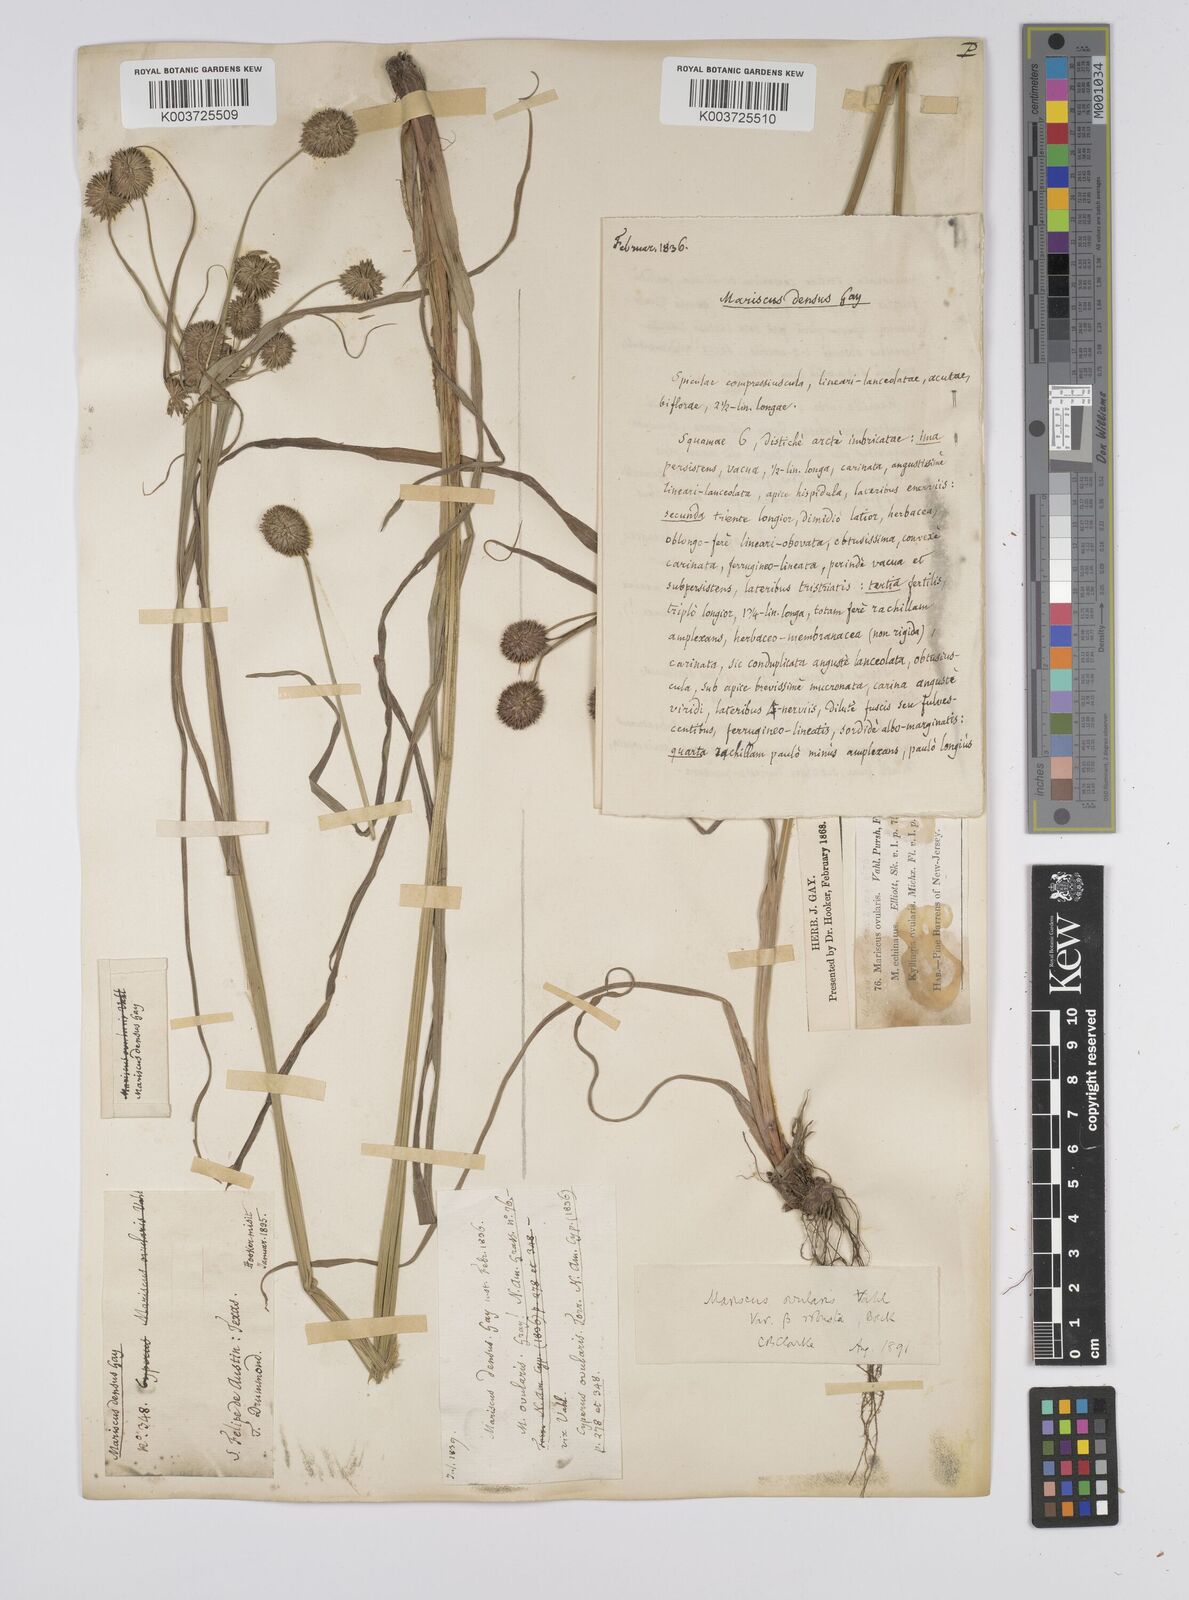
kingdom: Plantae
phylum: Tracheophyta
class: Liliopsida
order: Poales
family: Cyperaceae
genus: Cyperus
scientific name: Cyperus echinatus
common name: Teasel sedge
